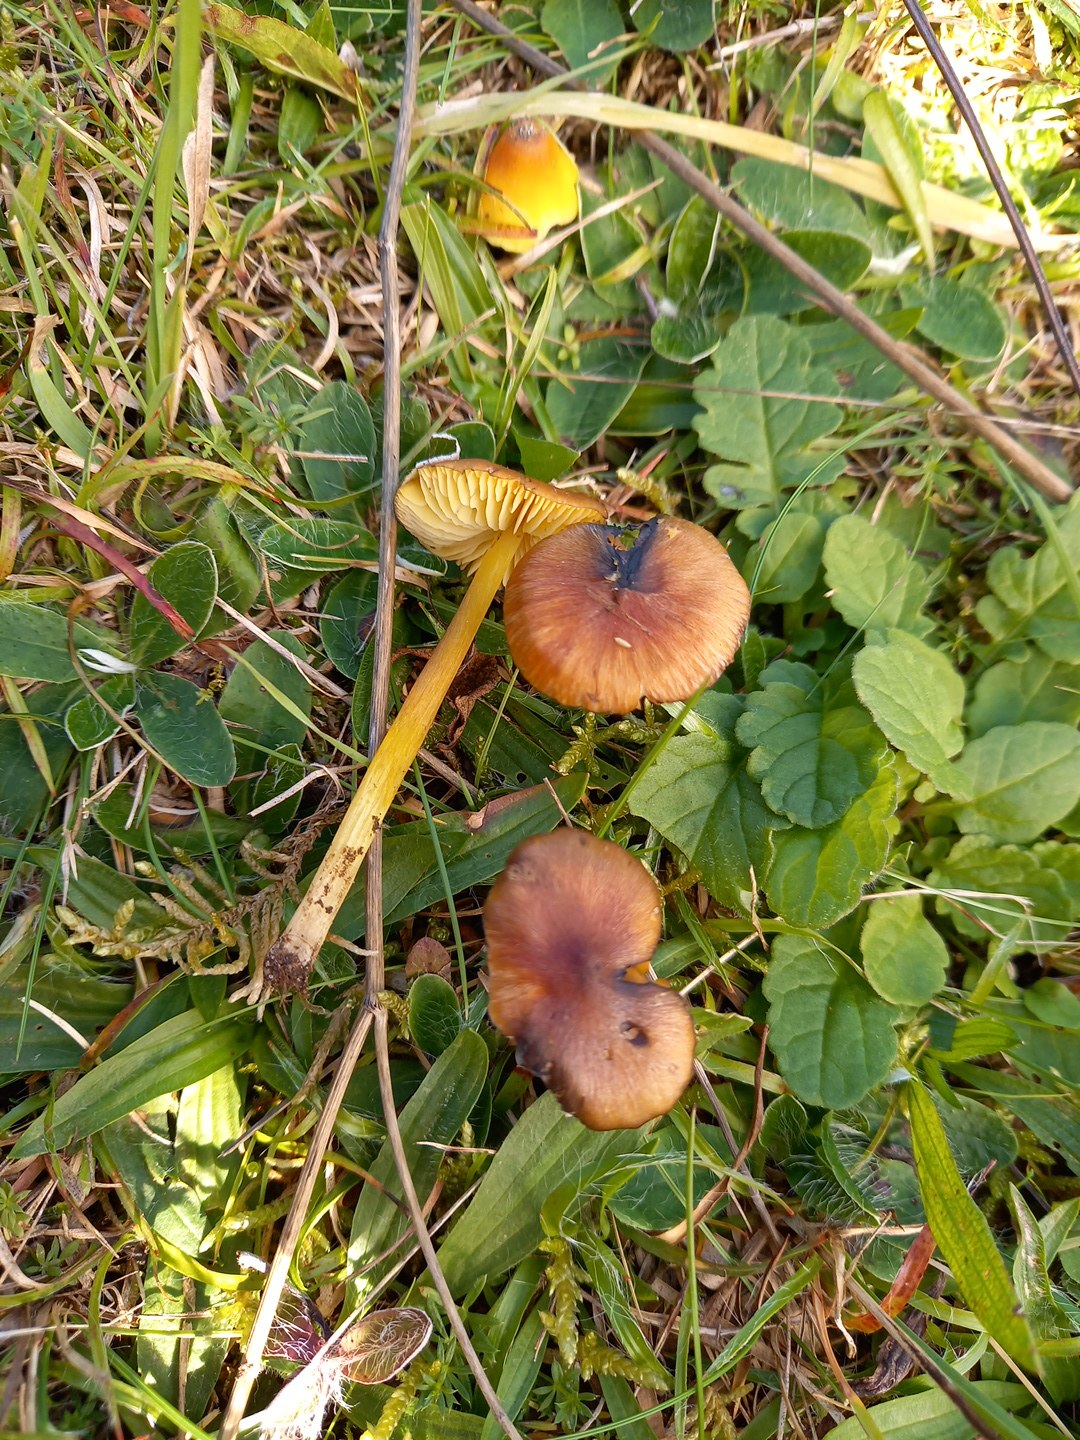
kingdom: Fungi
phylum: Basidiomycota
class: Agaricomycetes
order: Agaricales
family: Hygrophoraceae
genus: Hygrocybe
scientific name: Hygrocybe conica
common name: kegle-vokshat
